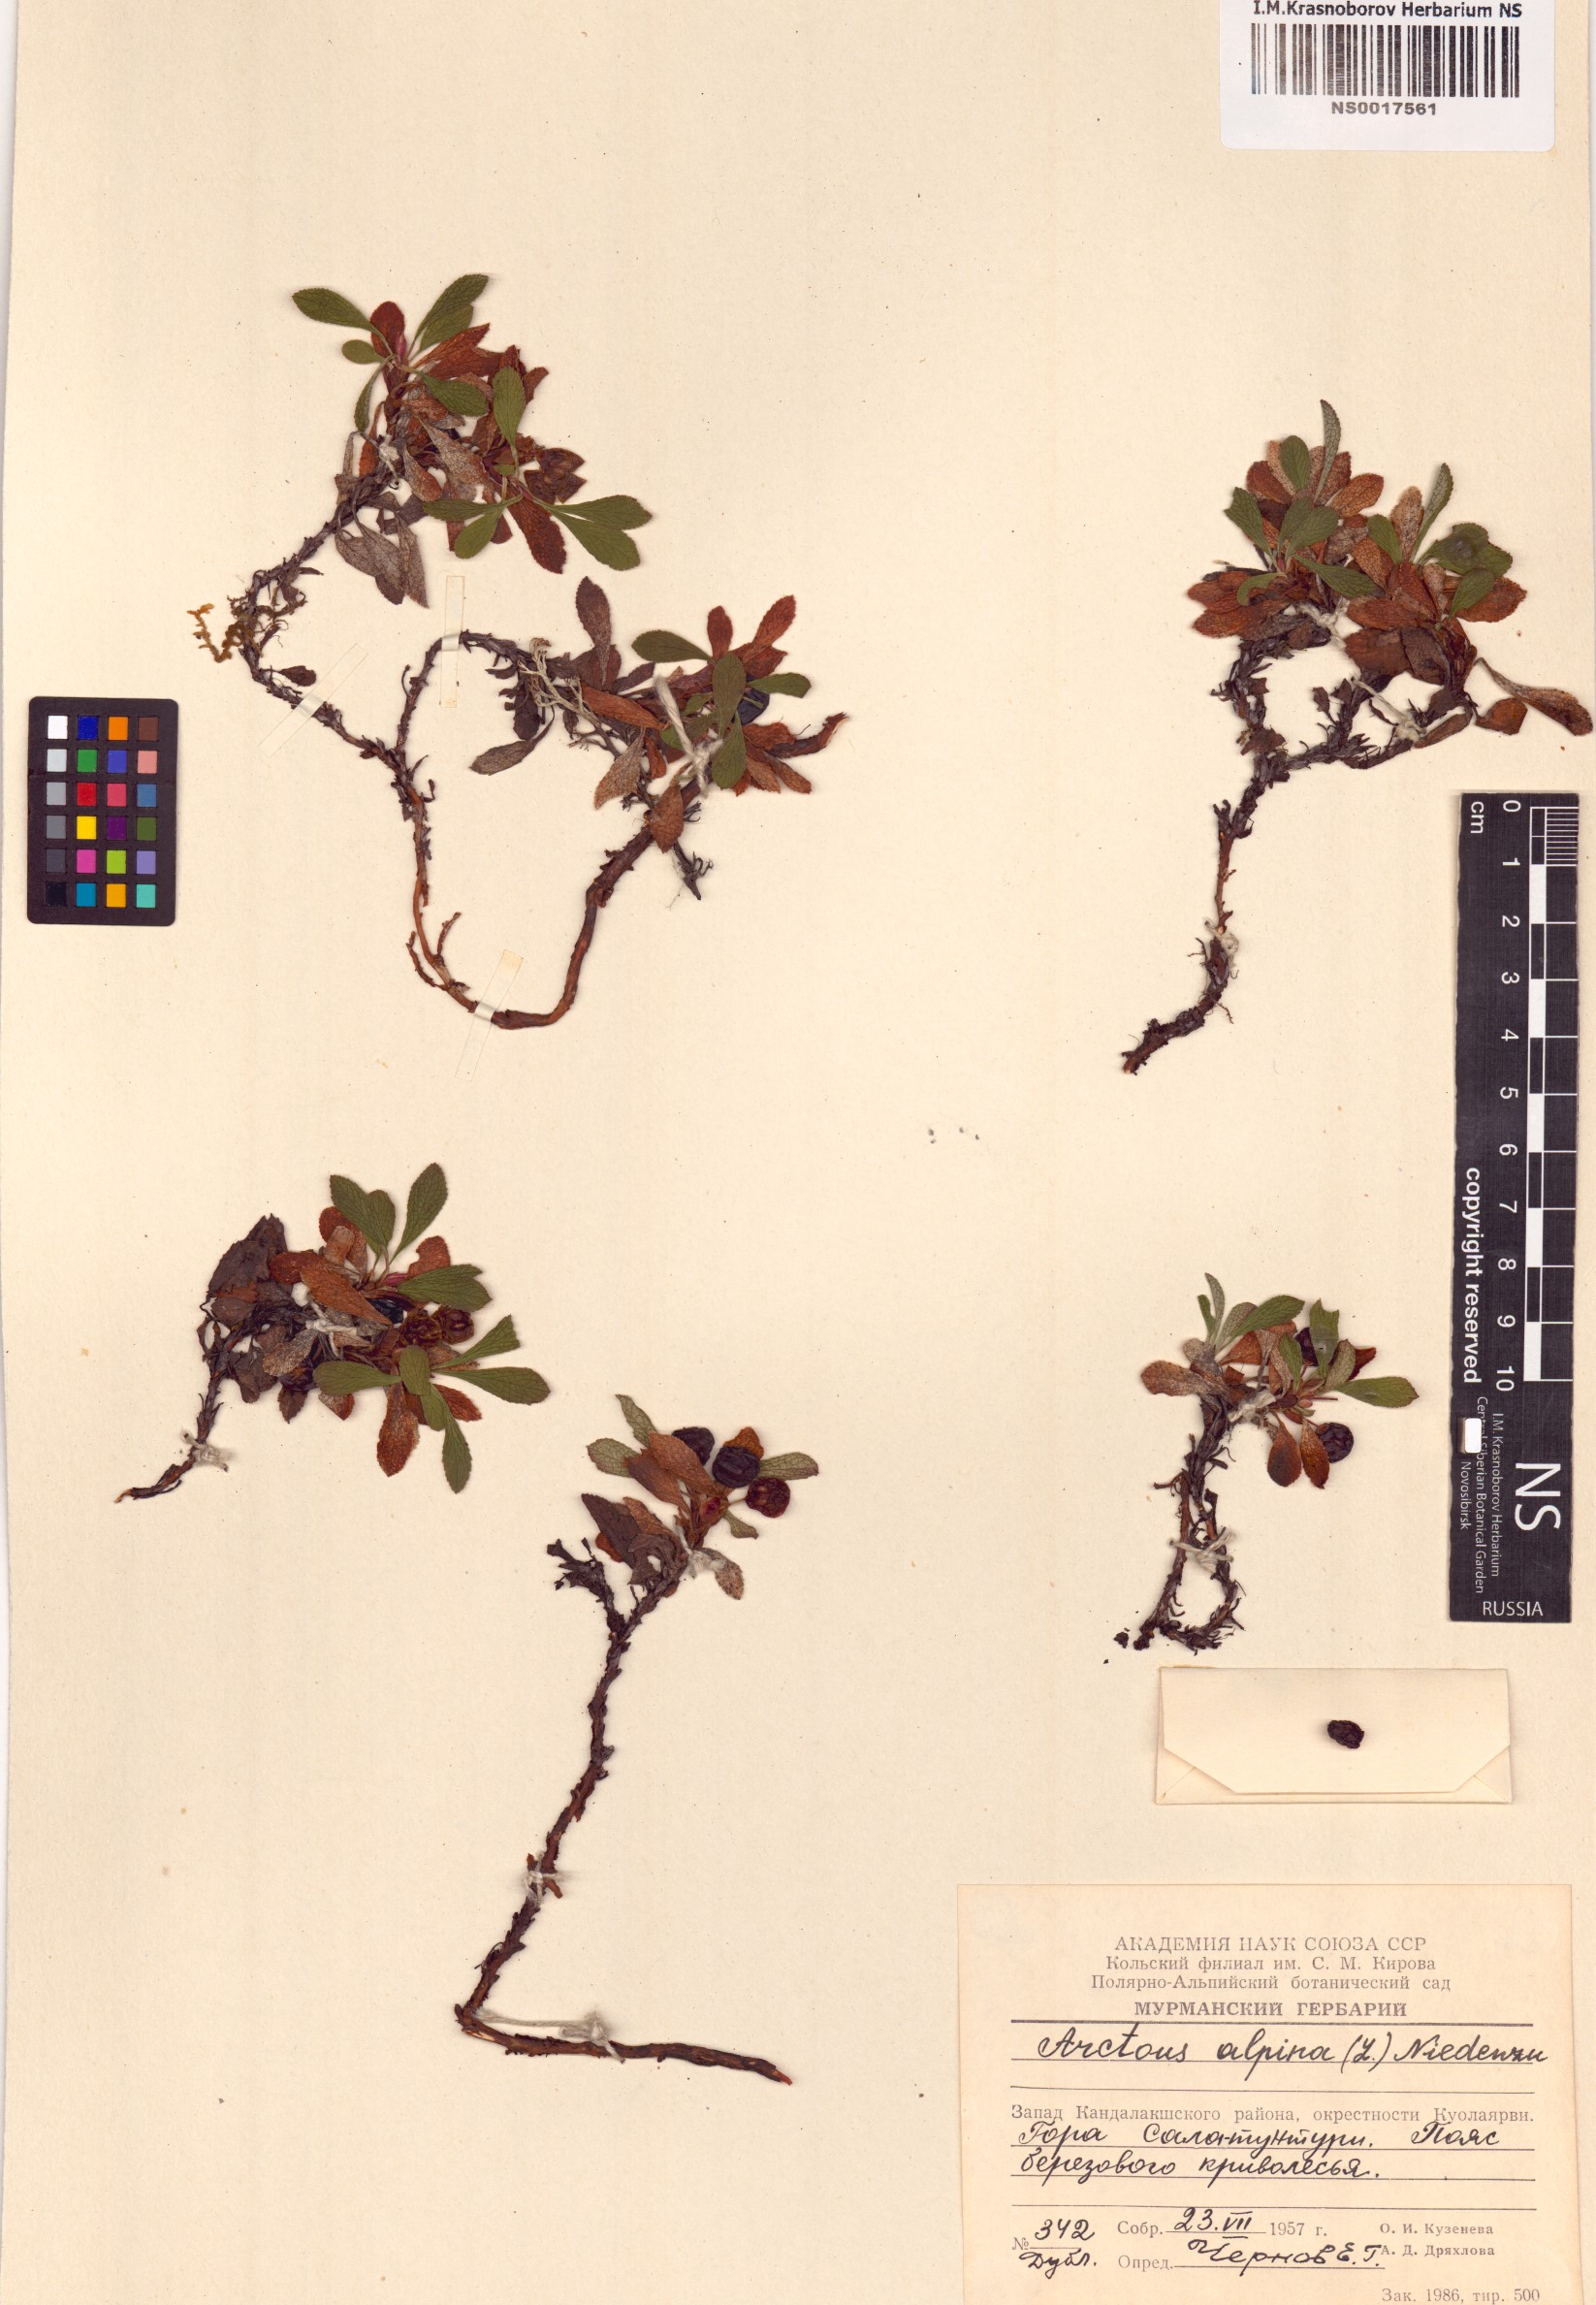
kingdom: Plantae
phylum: Tracheophyta
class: Magnoliopsida
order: Ericales
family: Ericaceae
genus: Arctostaphylos
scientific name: Arctostaphylos alpinus
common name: Alpine bearberry
